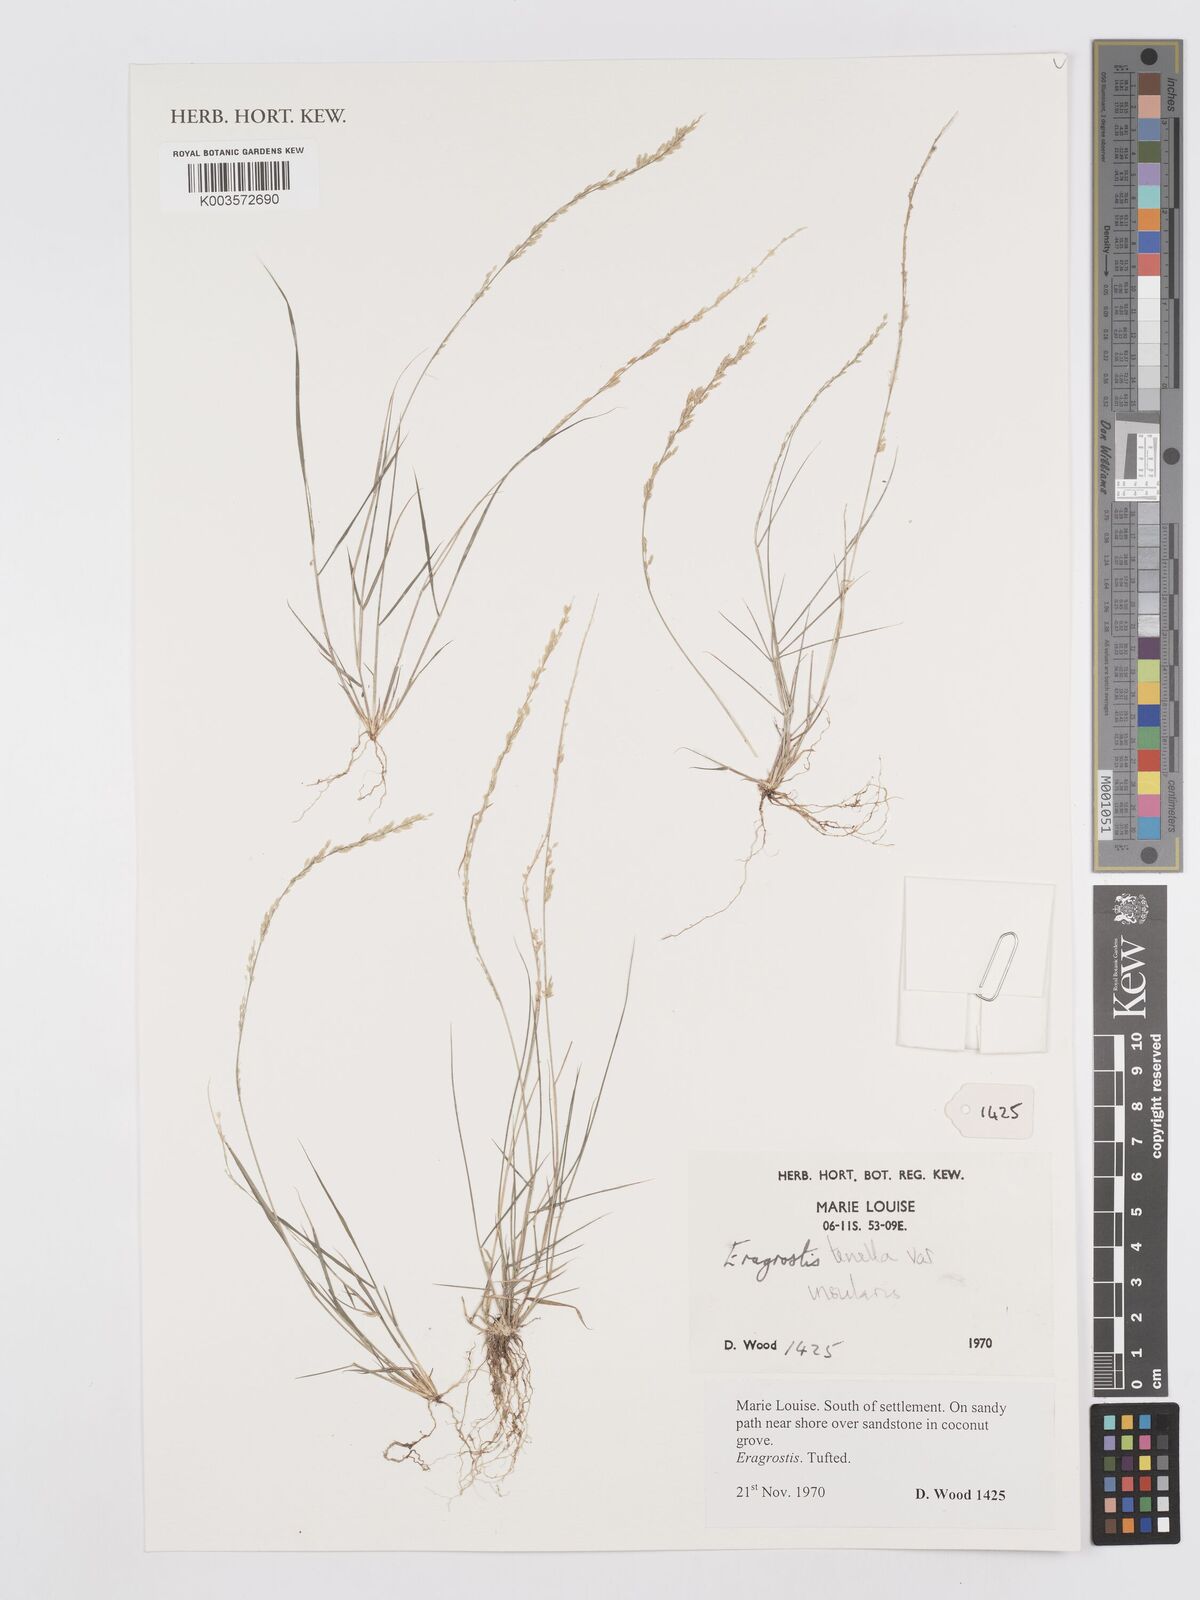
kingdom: Plantae
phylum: Tracheophyta
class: Liliopsida
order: Poales
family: Poaceae
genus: Eragrostis
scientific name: Eragrostis tenella
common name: Japanese lovegrass
